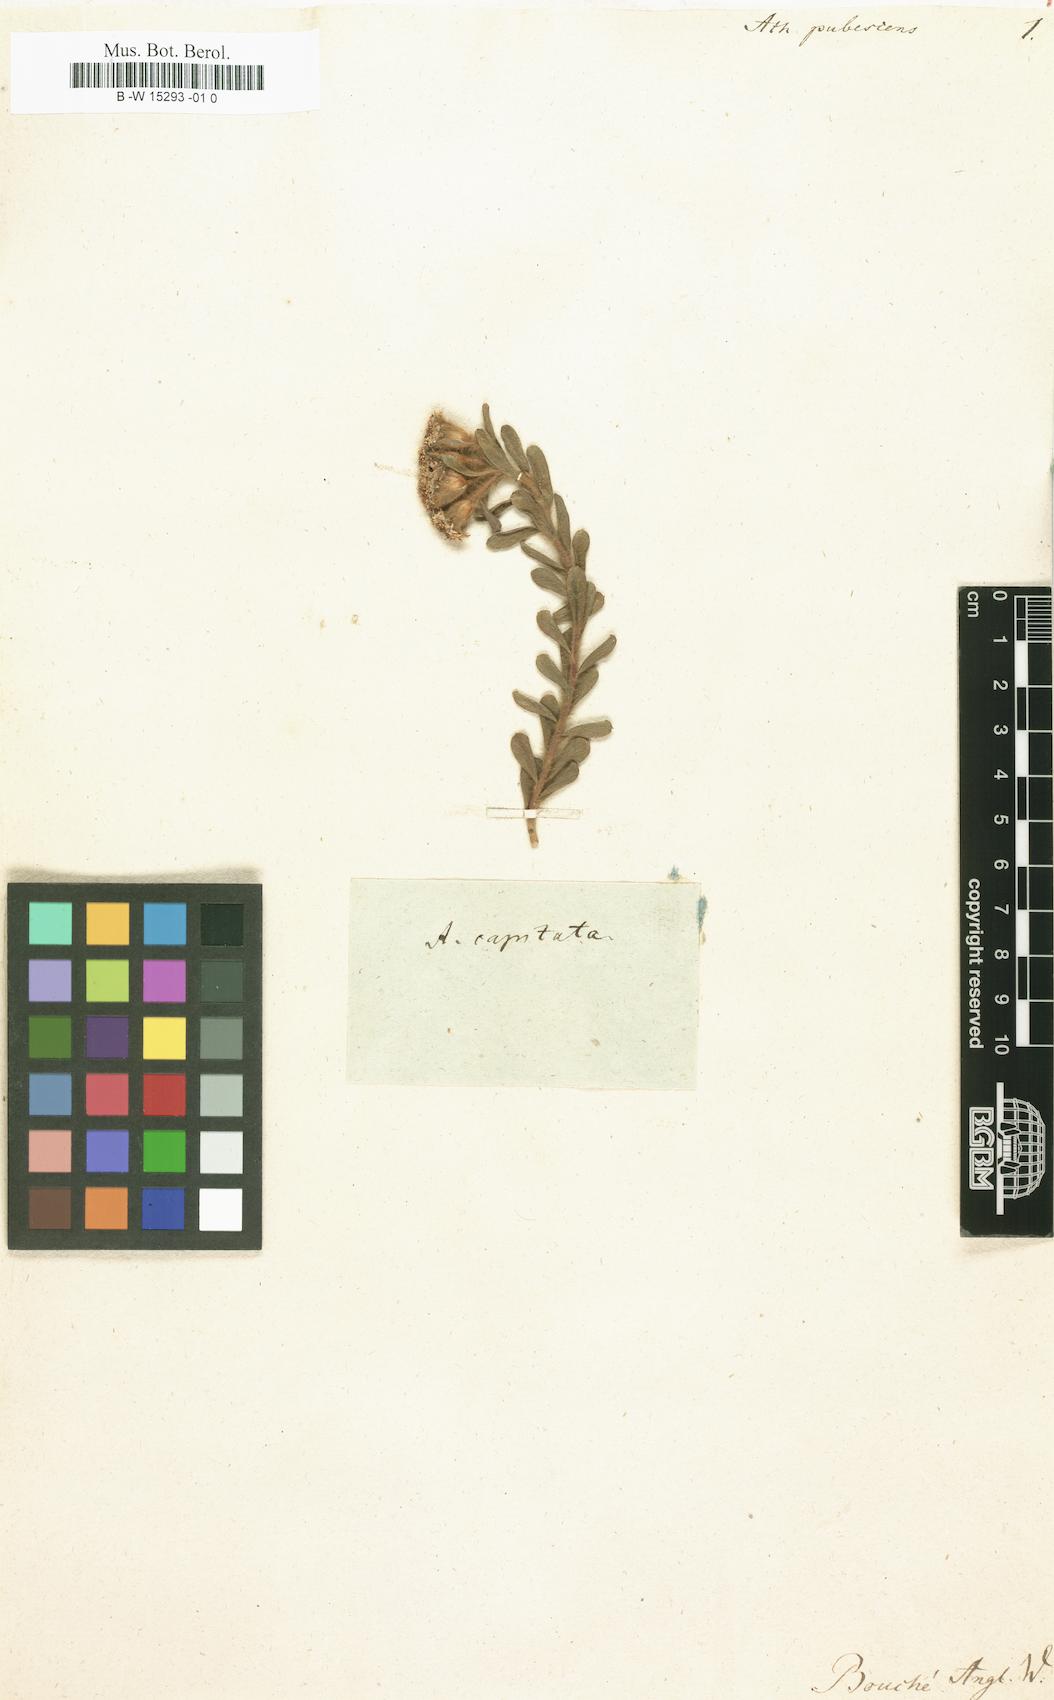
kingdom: Plantae
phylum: Tracheophyta
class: Magnoliopsida
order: Asterales
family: Asteraceae
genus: Athanasia
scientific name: Athanasia pubescens
